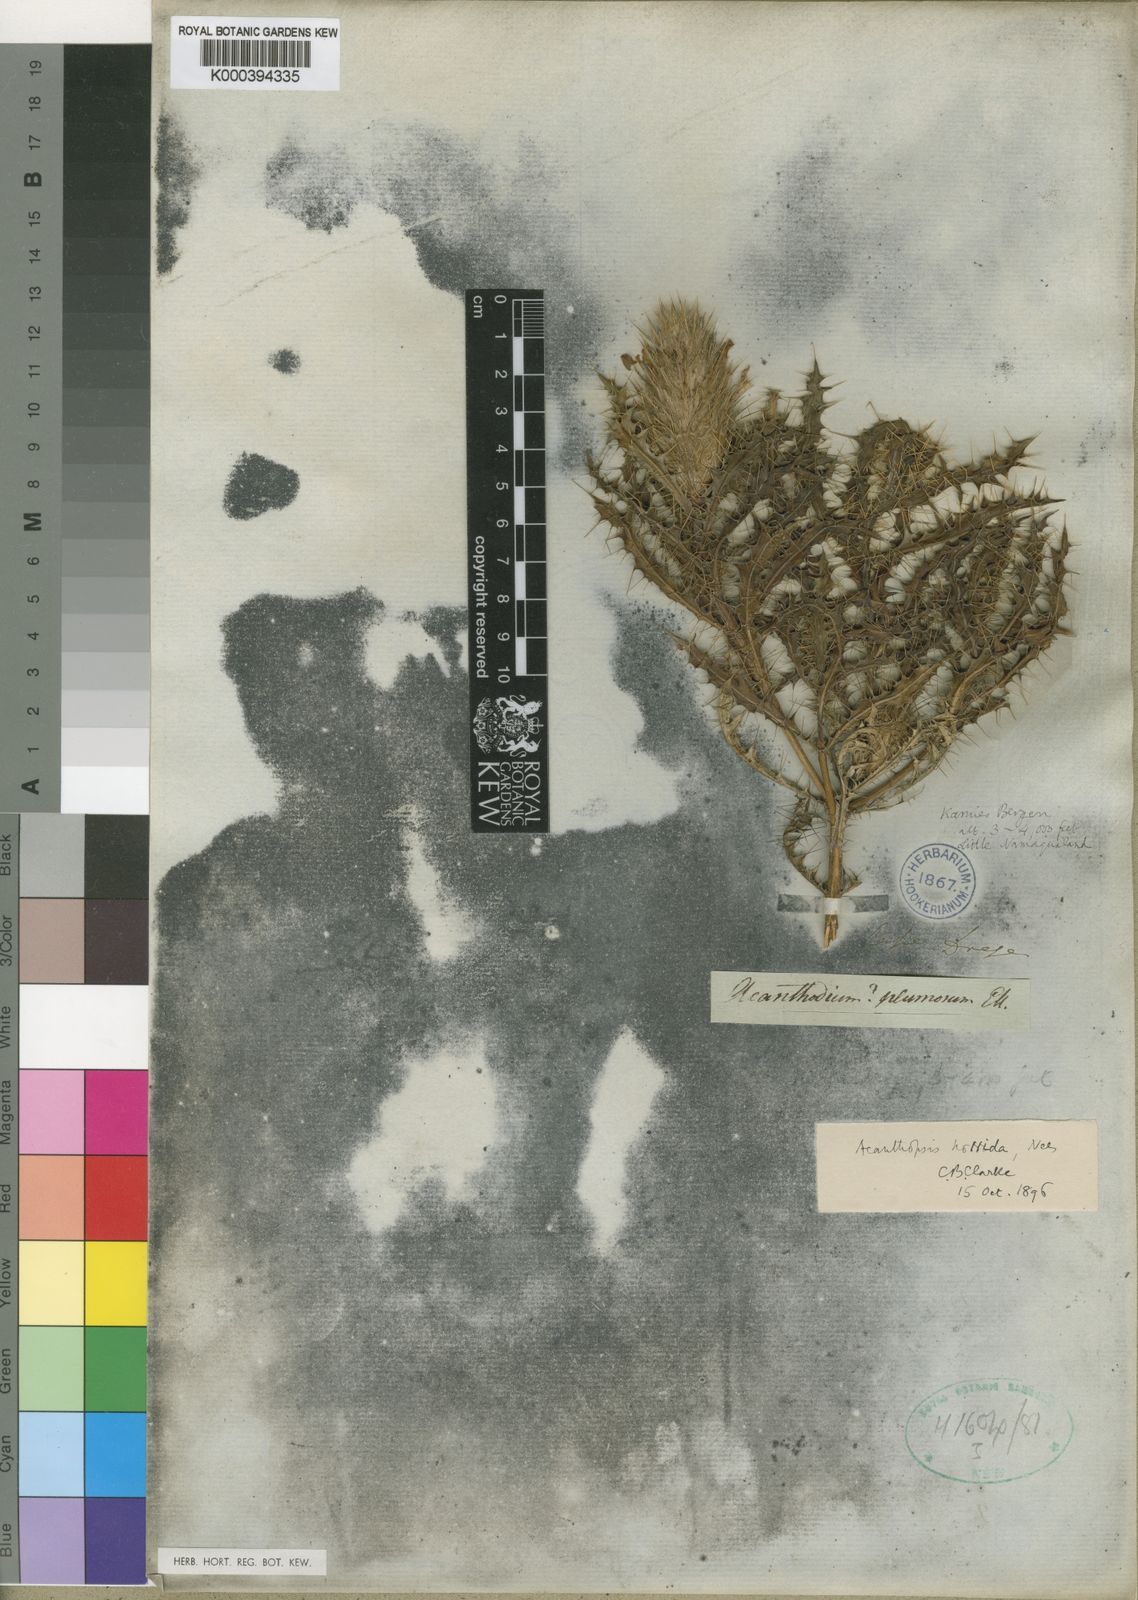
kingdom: Plantae
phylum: Tracheophyta
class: Magnoliopsida
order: Lamiales
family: Acanthaceae
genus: Acanthopsis
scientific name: Acanthopsis horrida
